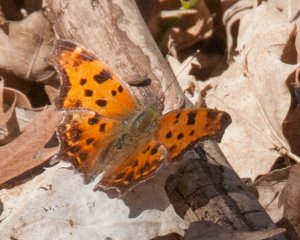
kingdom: Animalia
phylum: Arthropoda
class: Insecta
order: Lepidoptera
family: Nymphalidae
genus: Polygonia
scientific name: Polygonia comma
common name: Eastern Comma
